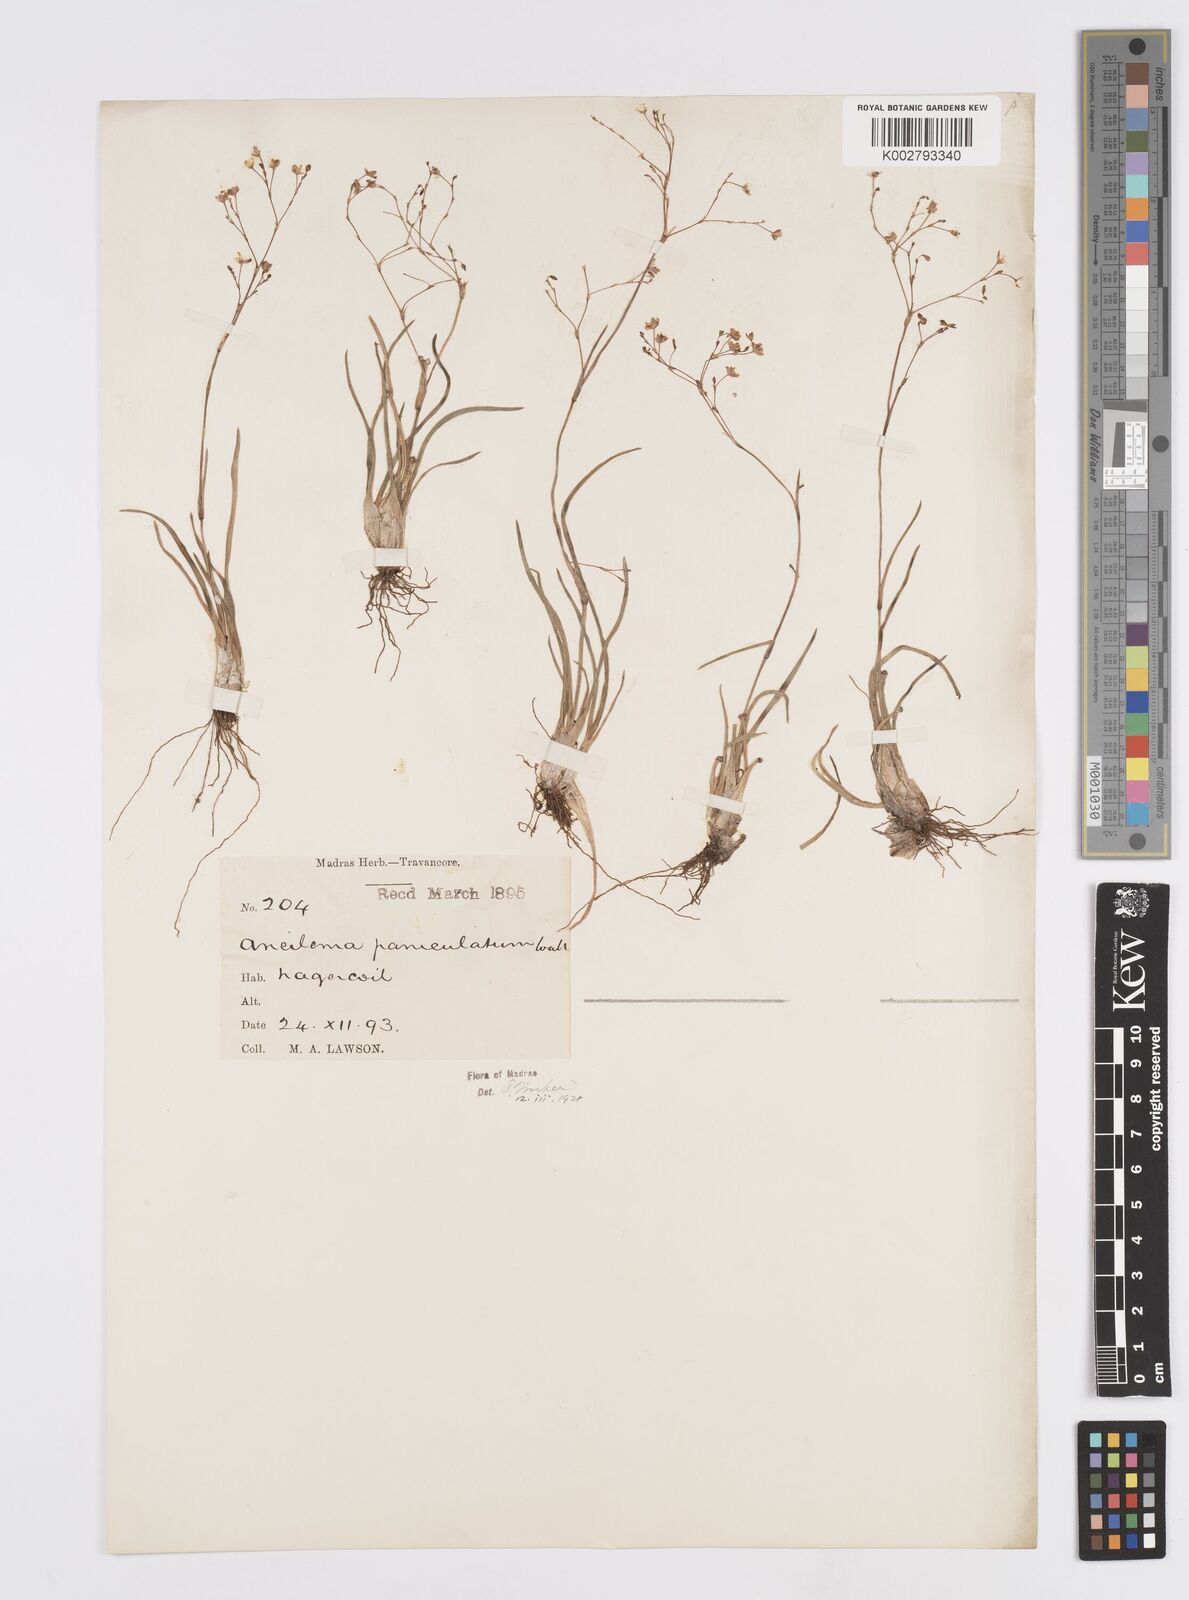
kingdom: Plantae
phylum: Tracheophyta
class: Liliopsida
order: Commelinales
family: Commelinaceae
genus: Murdannia
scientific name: Murdannia semiteres
